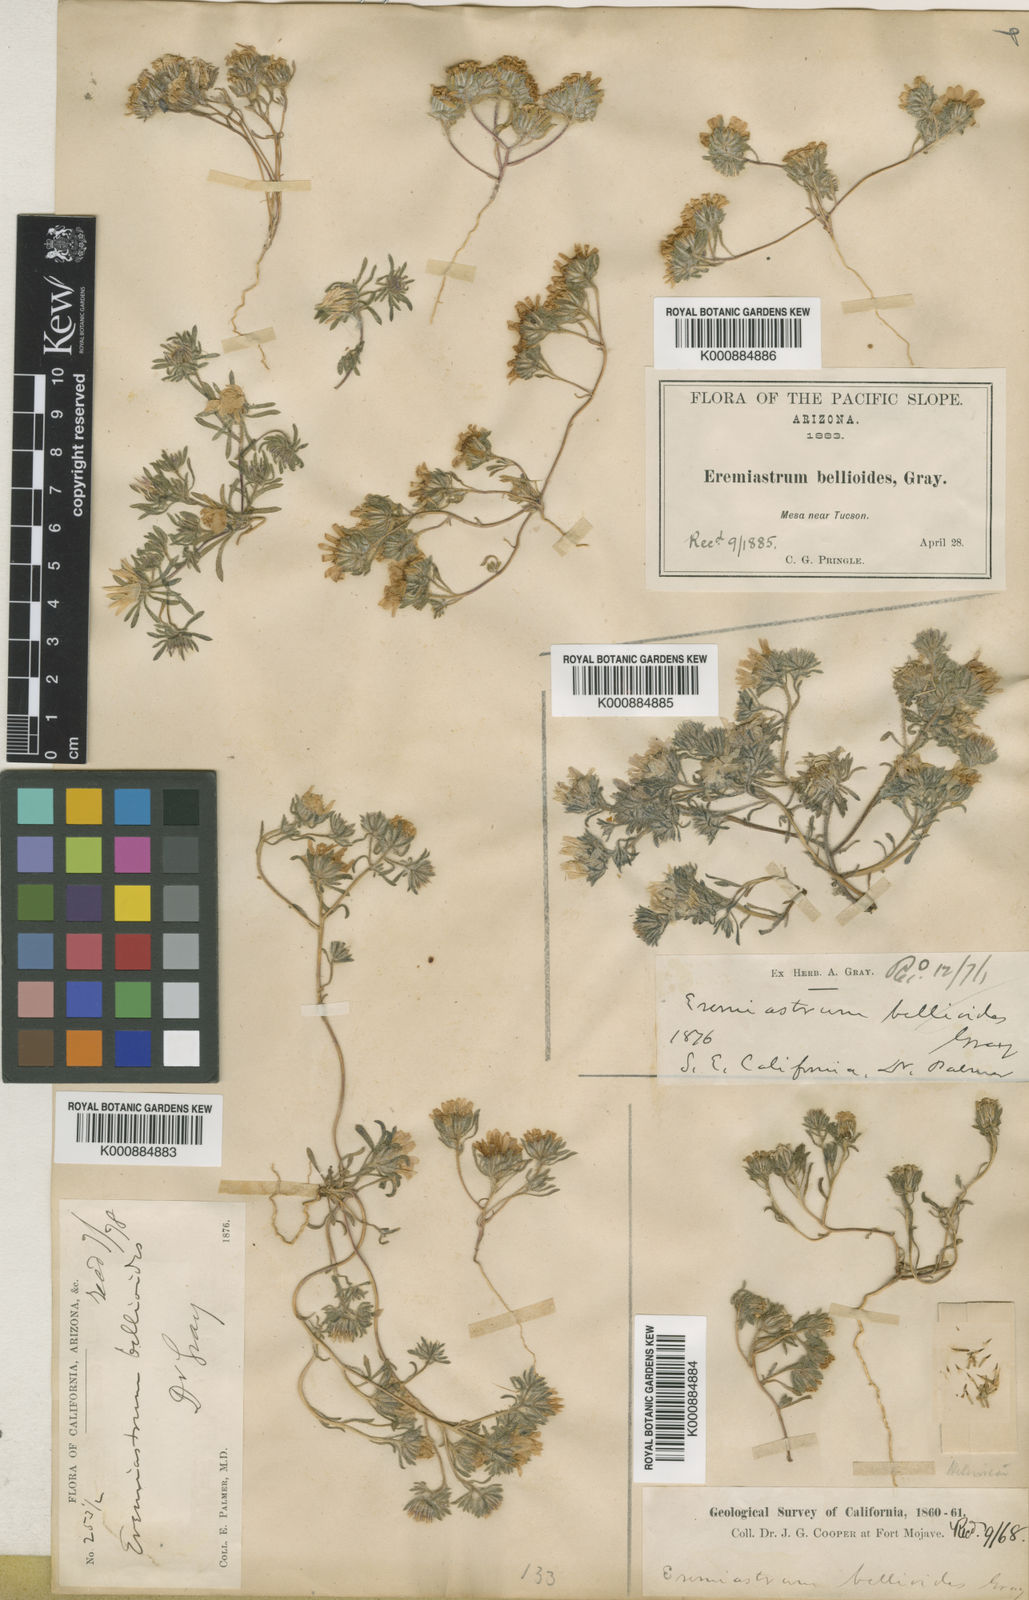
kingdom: Plantae
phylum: Tracheophyta
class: Magnoliopsida
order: Asterales
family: Asteraceae
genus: Monoptilon
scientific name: Monoptilon bellioides
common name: Bristly desertstar
